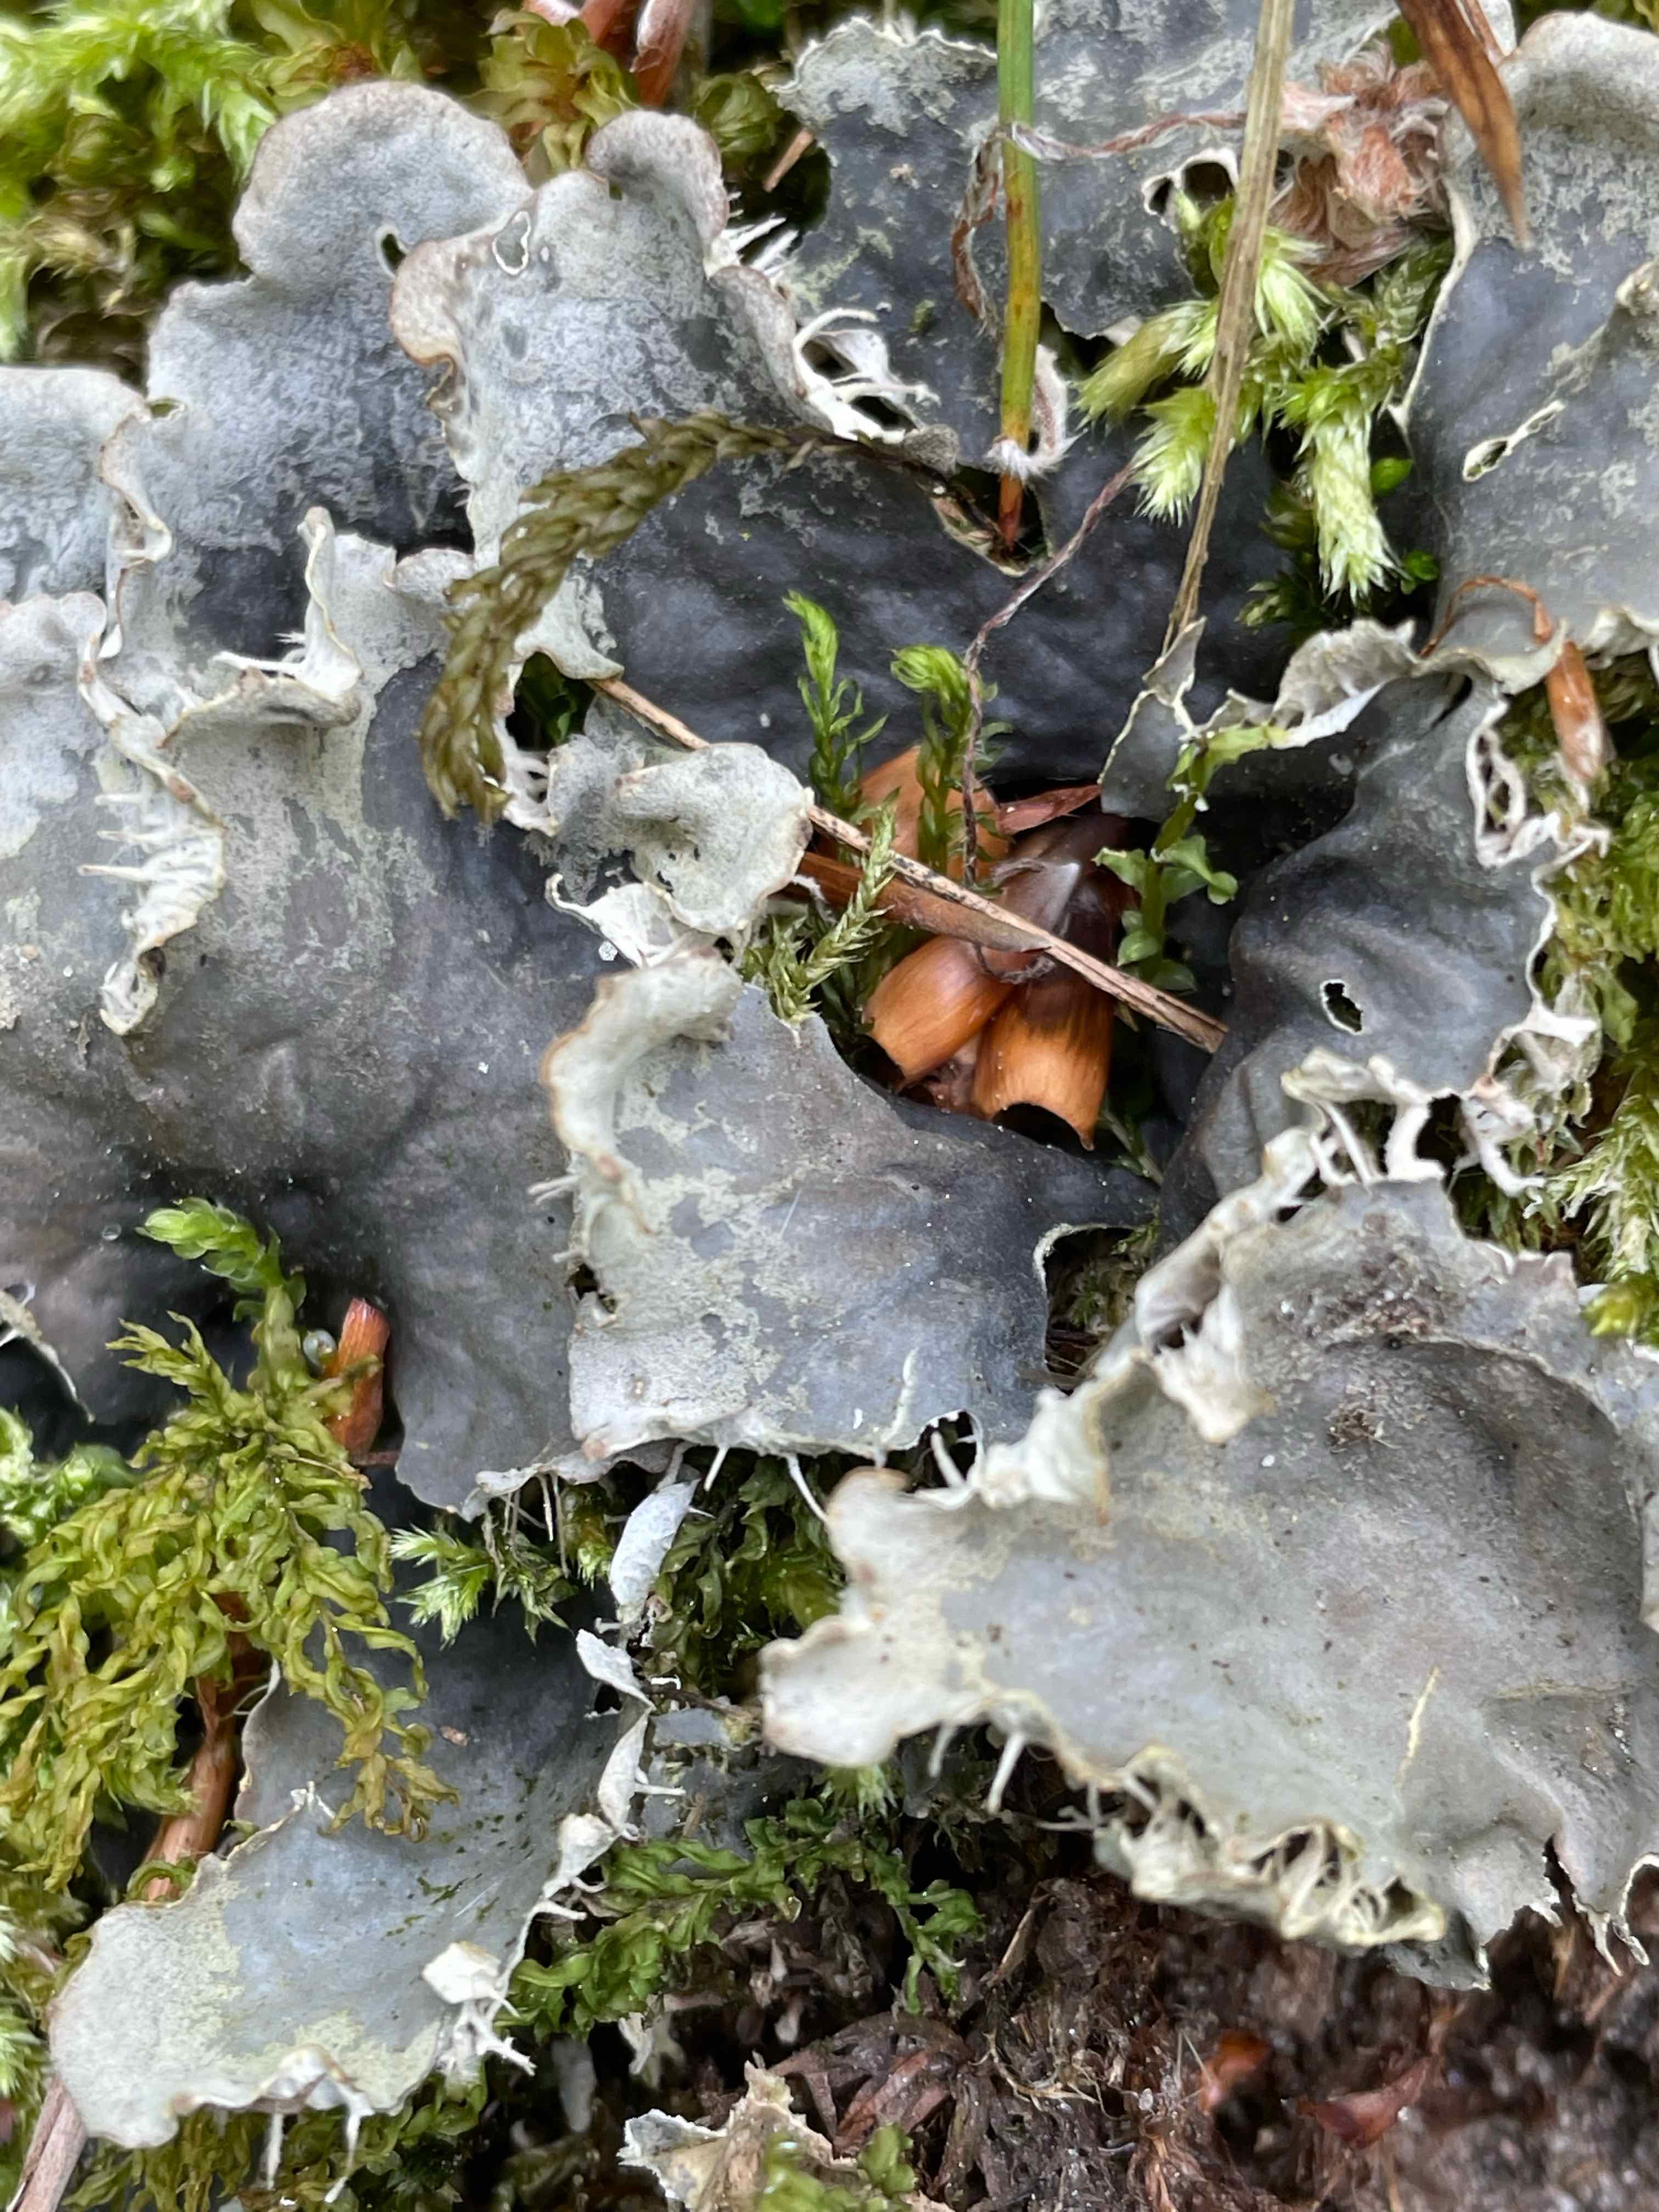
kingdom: Fungi
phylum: Ascomycota
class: Lecanoromycetes
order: Peltigerales
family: Peltigeraceae
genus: Peltigera
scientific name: Peltigera membranacea
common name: tynd skjoldlav
